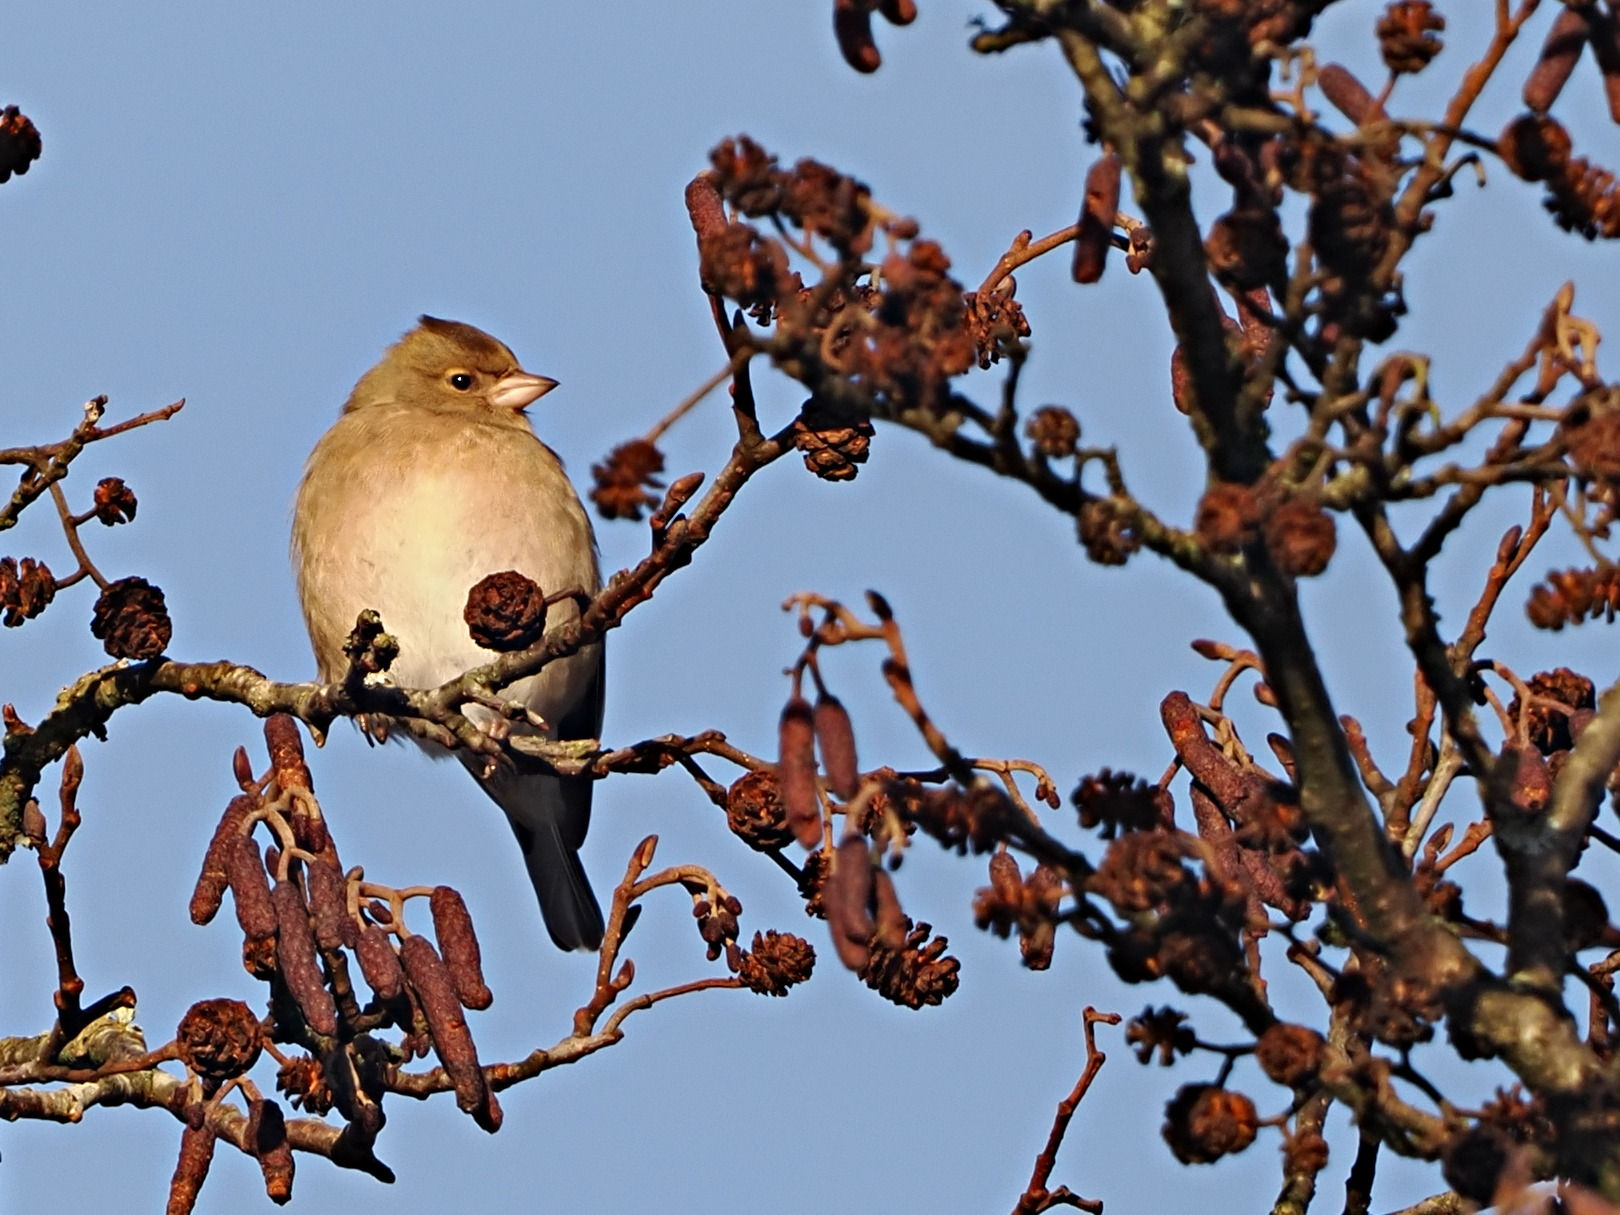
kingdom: Animalia
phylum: Chordata
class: Aves
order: Passeriformes
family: Fringillidae
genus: Fringilla
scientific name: Fringilla coelebs
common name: Bogfinke
